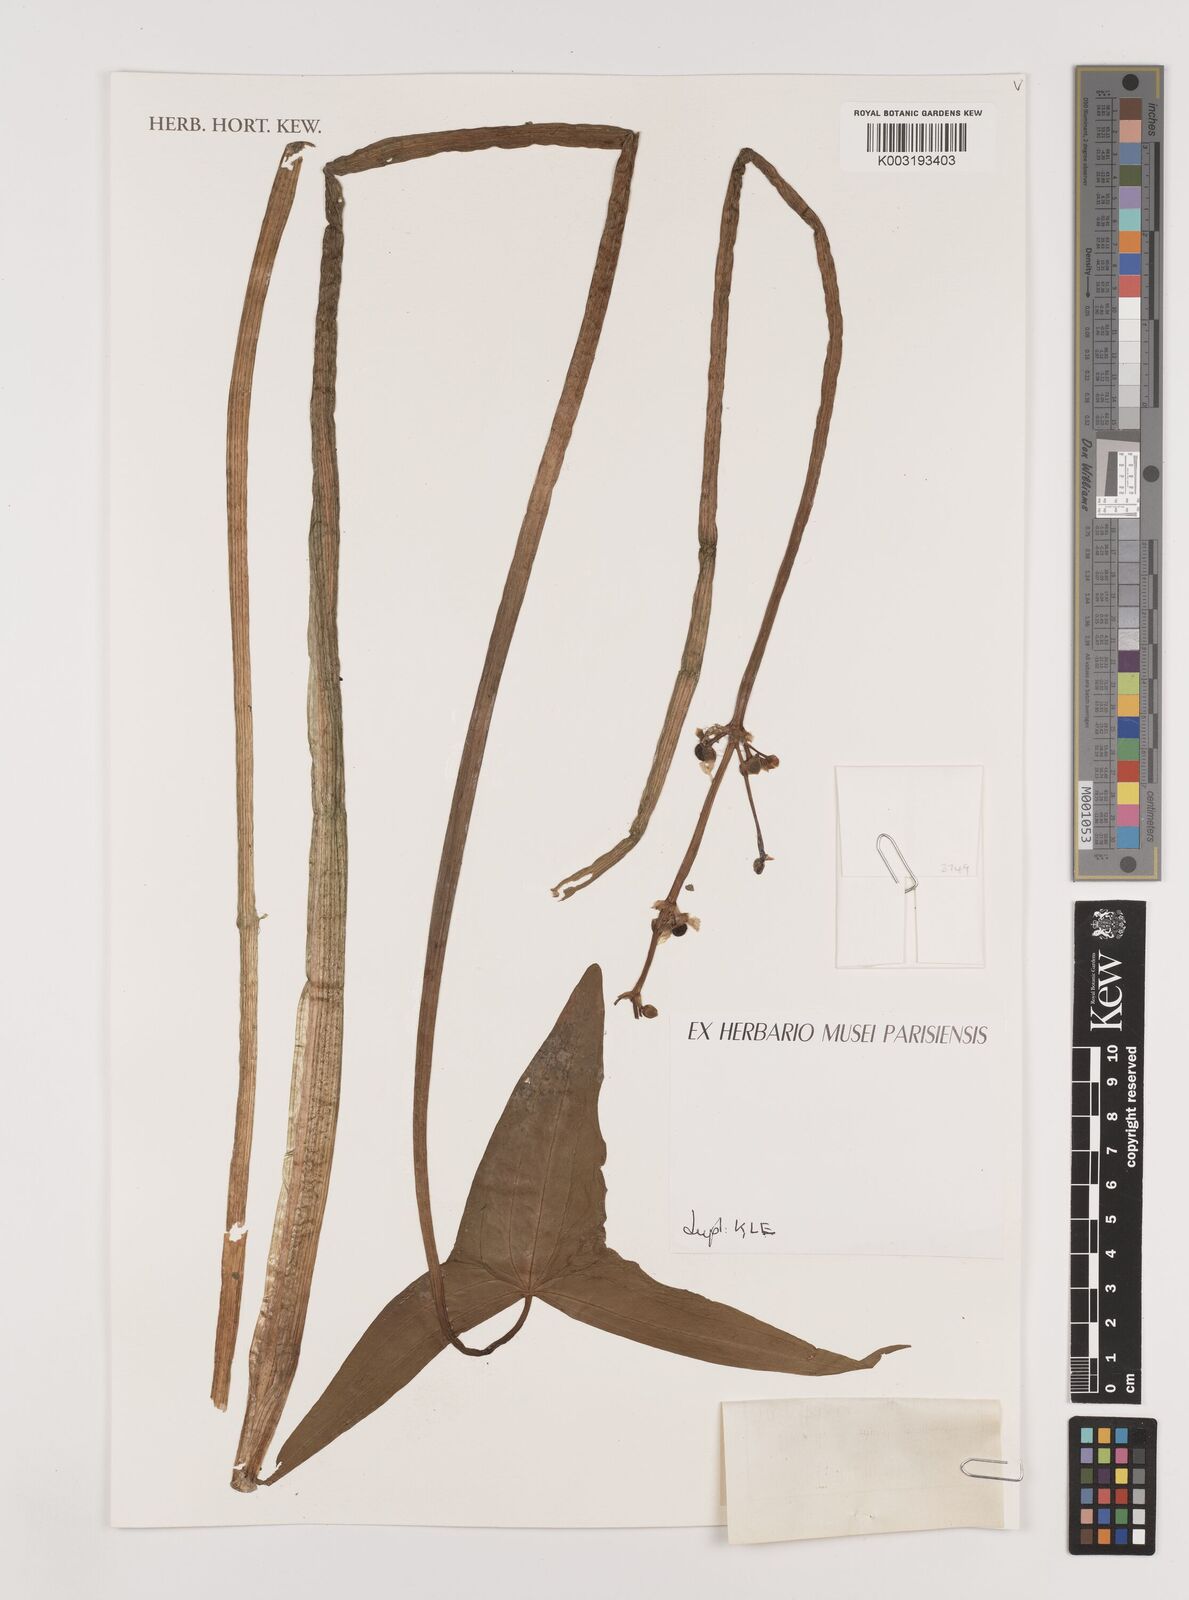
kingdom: Plantae
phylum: Tracheophyta
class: Liliopsida
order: Alismatales
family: Alismataceae
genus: Sagittaria
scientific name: Sagittaria sagittifolia
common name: Arrowhead
